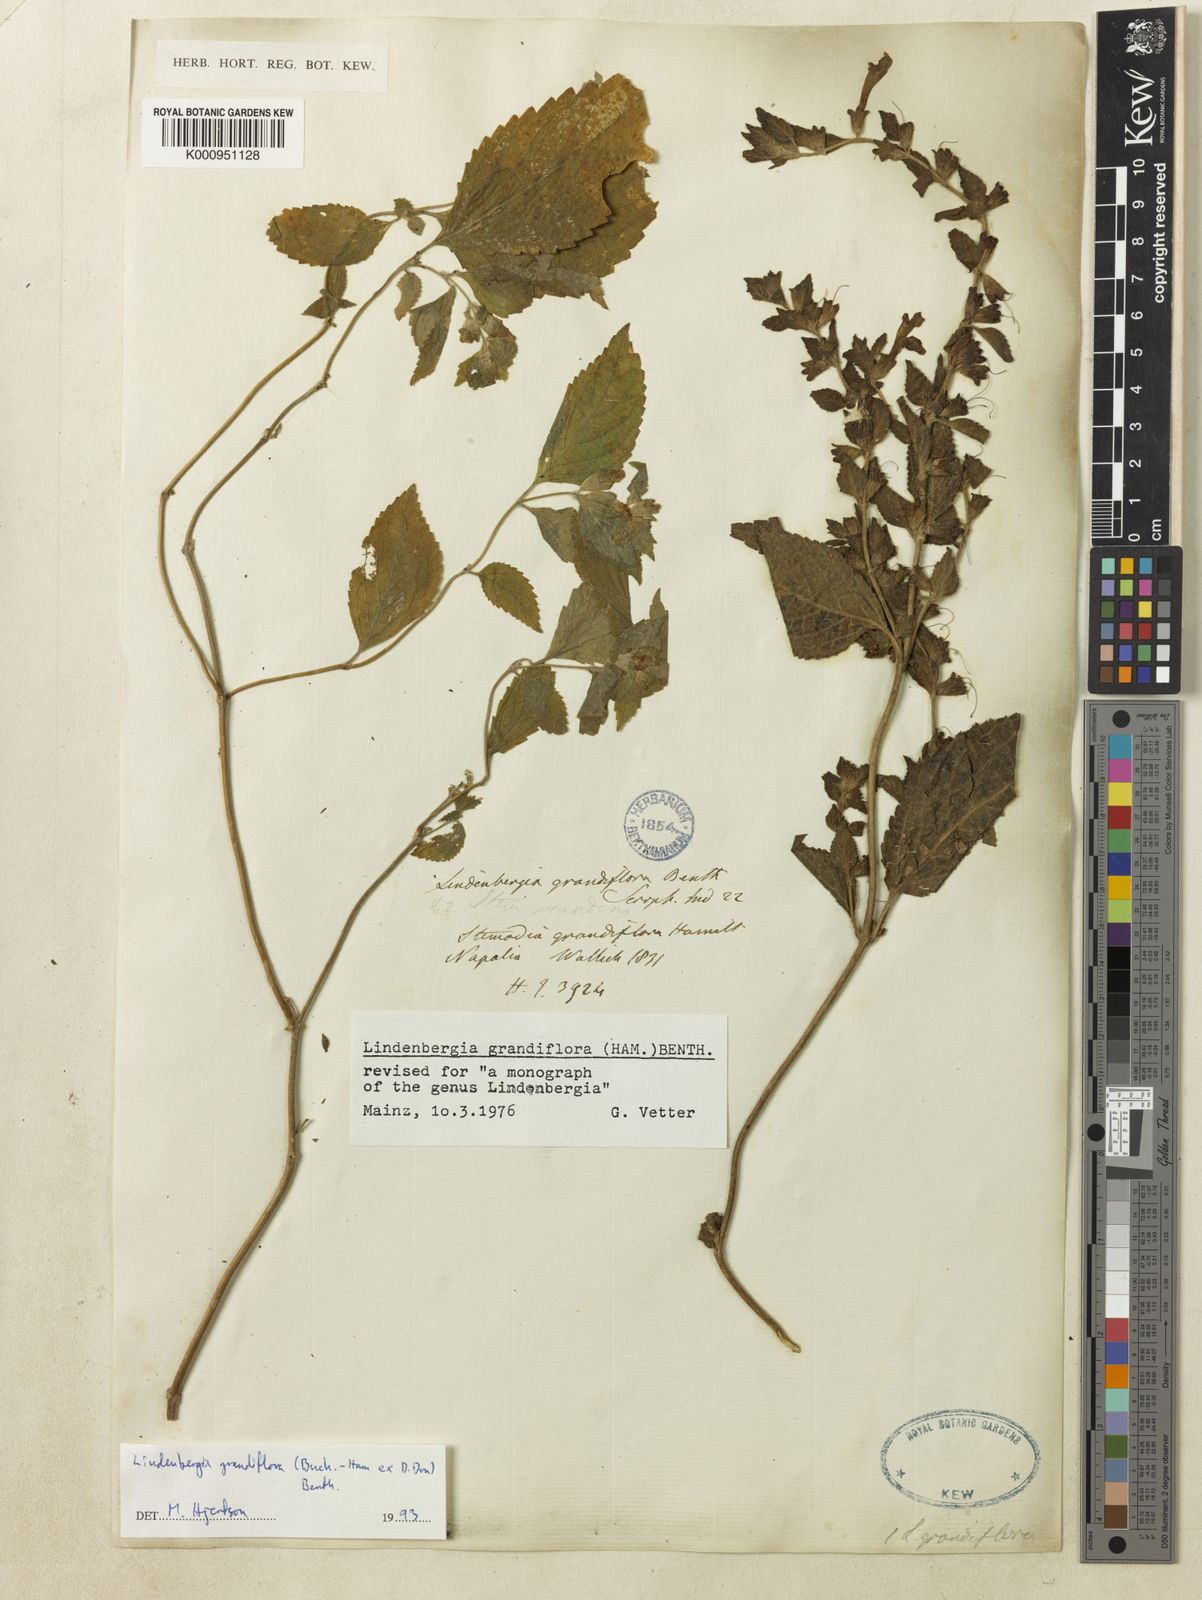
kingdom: Plantae
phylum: Tracheophyta
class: Magnoliopsida
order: Lamiales
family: Orobanchaceae
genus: Lindenbergia
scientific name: Lindenbergia grandiflora
